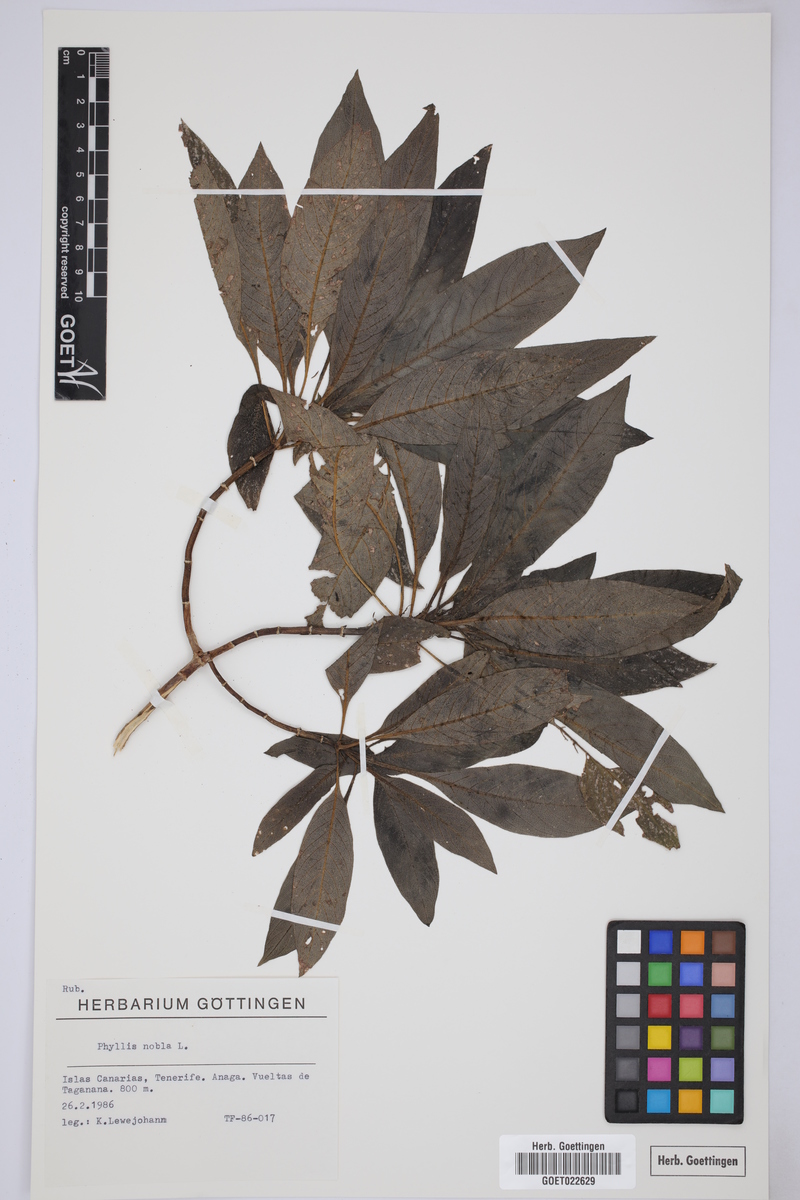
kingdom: Plantae
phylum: Tracheophyta
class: Magnoliopsida
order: Gentianales
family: Rubiaceae
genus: Phyllis
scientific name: Phyllis nobla
